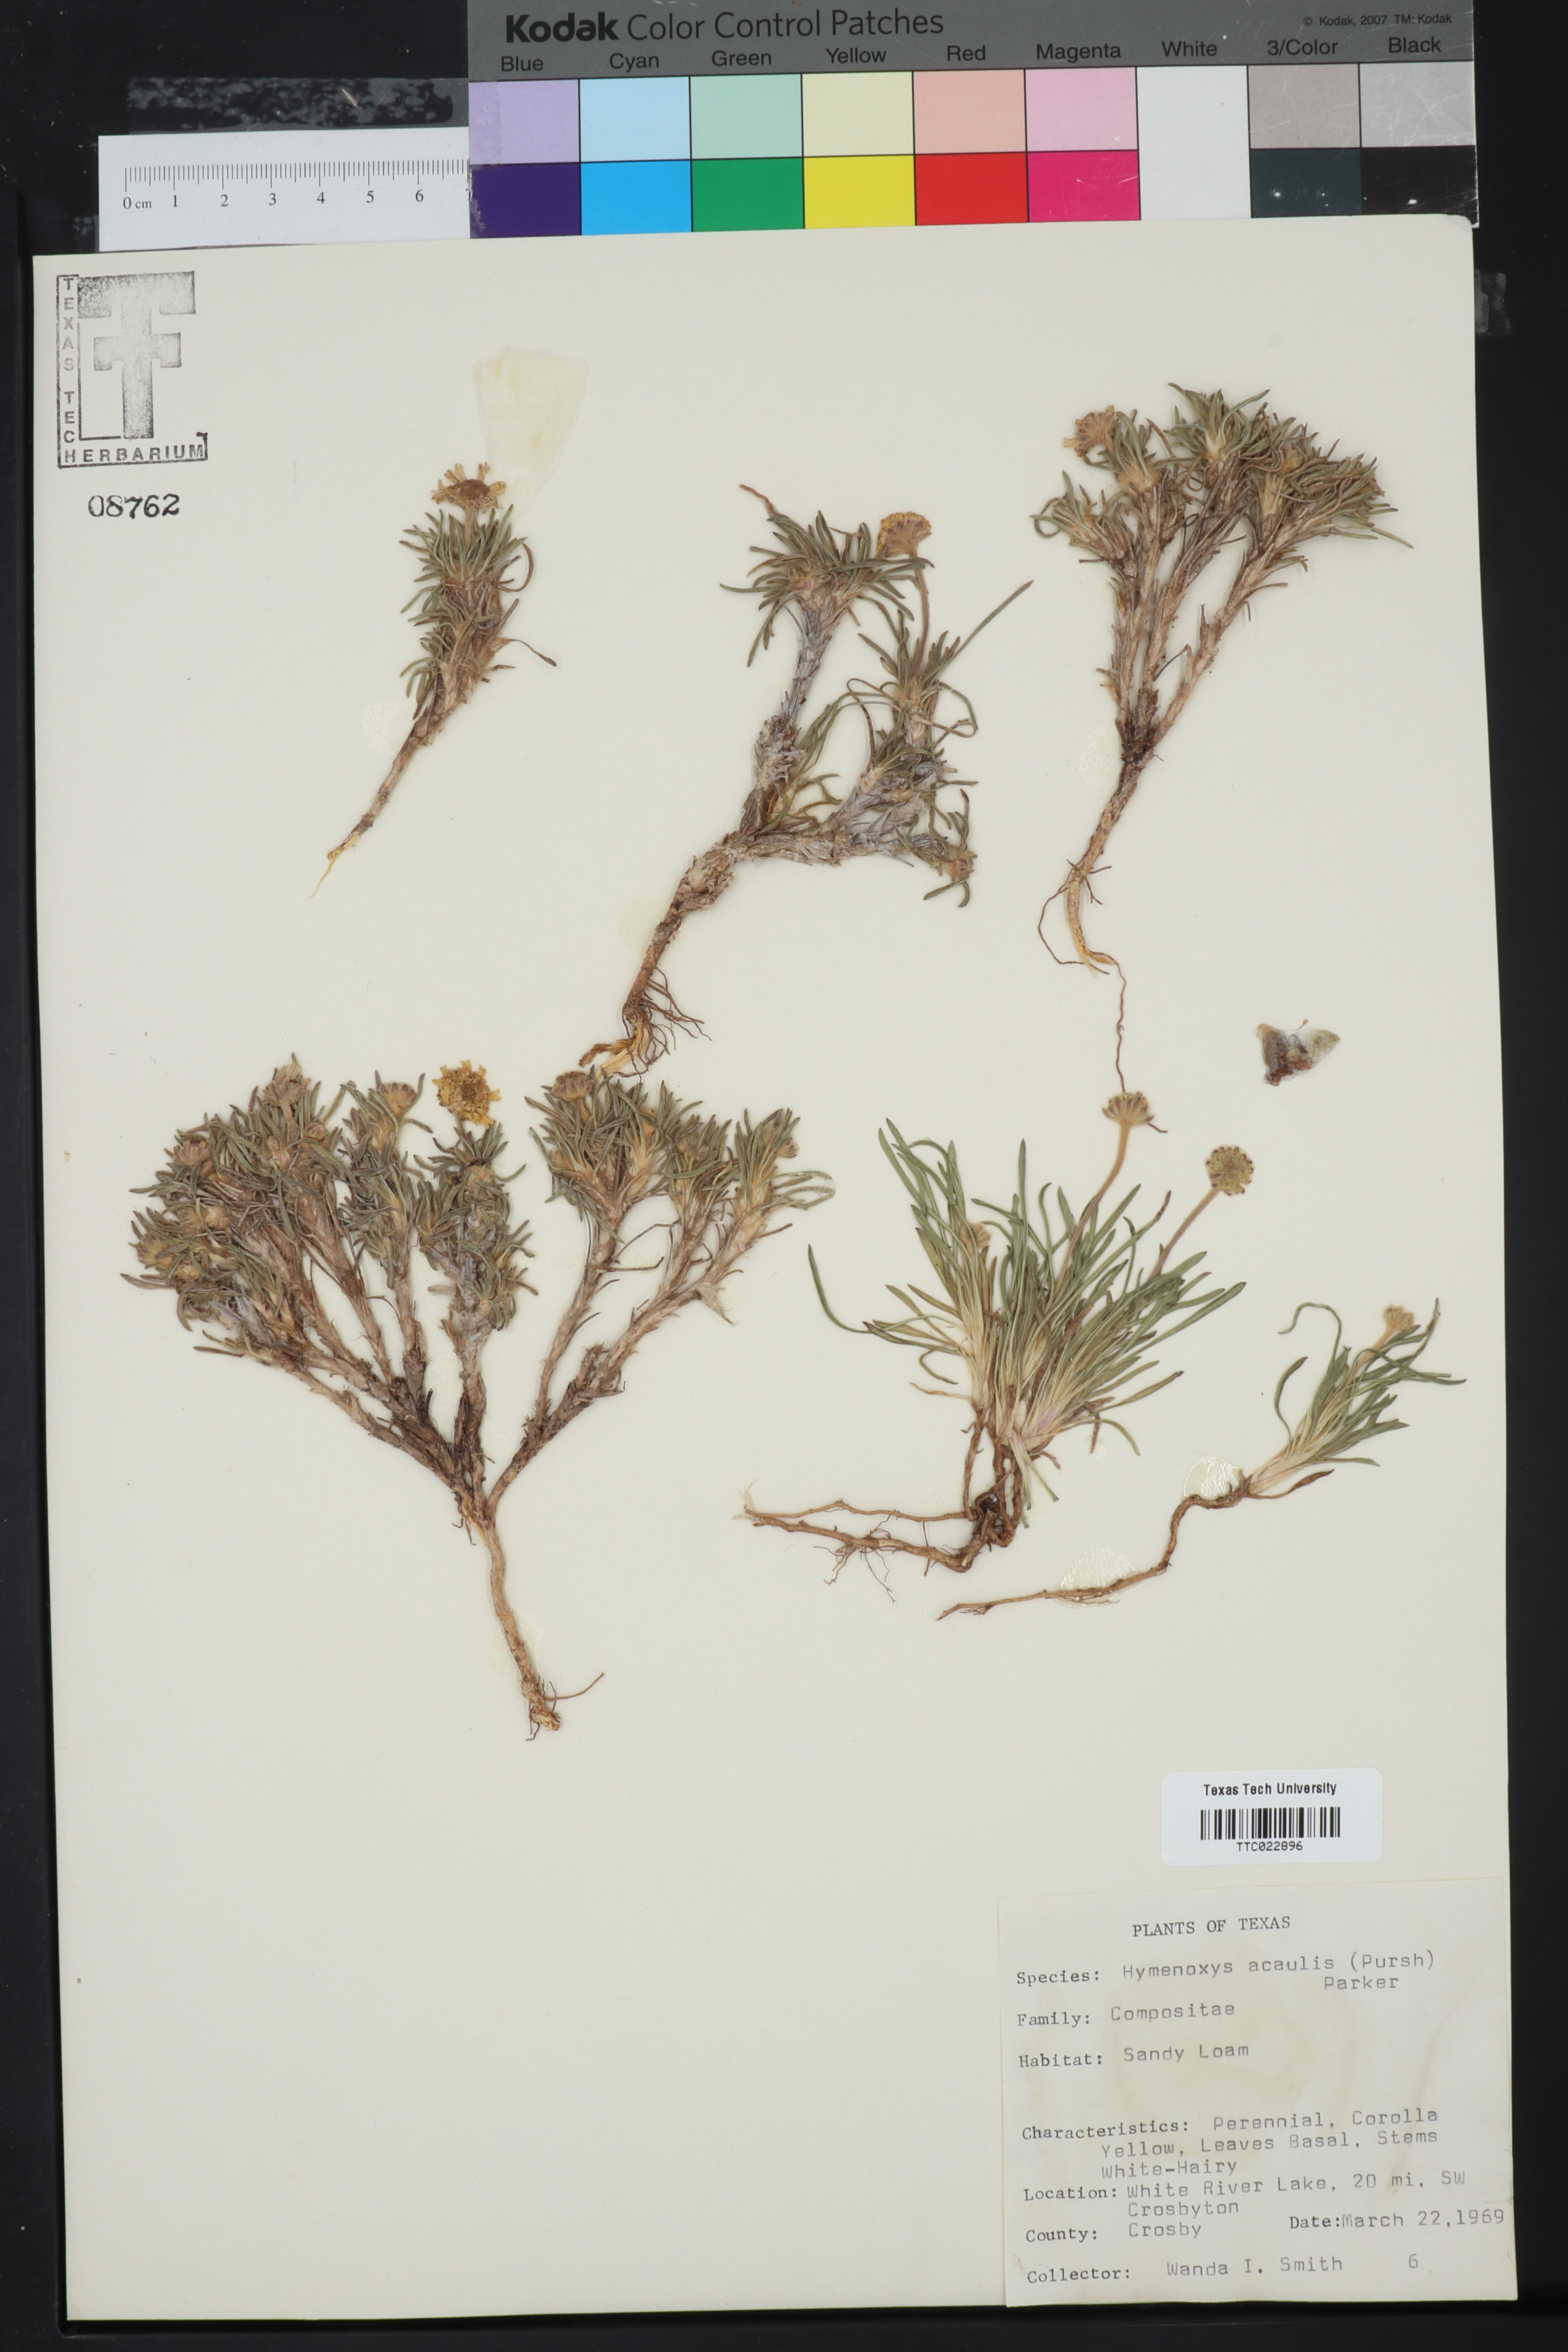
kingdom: Plantae
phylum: Tracheophyta
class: Magnoliopsida
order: Asterales
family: Asteraceae
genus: Tetraneuris
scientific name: Tetraneuris acaulis
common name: Butte marigold
